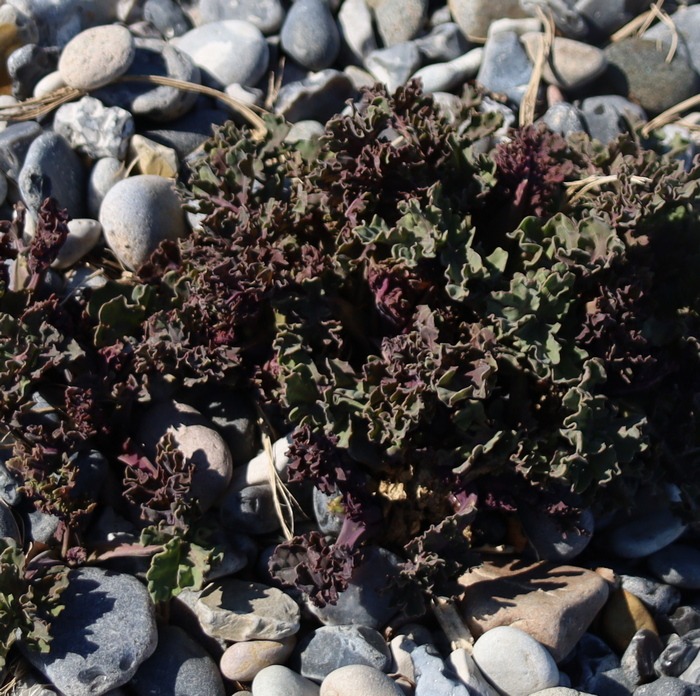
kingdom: Plantae
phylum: Tracheophyta
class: Magnoliopsida
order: Brassicales
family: Brassicaceae
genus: Crambe
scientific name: Crambe maritima
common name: Strandkål
